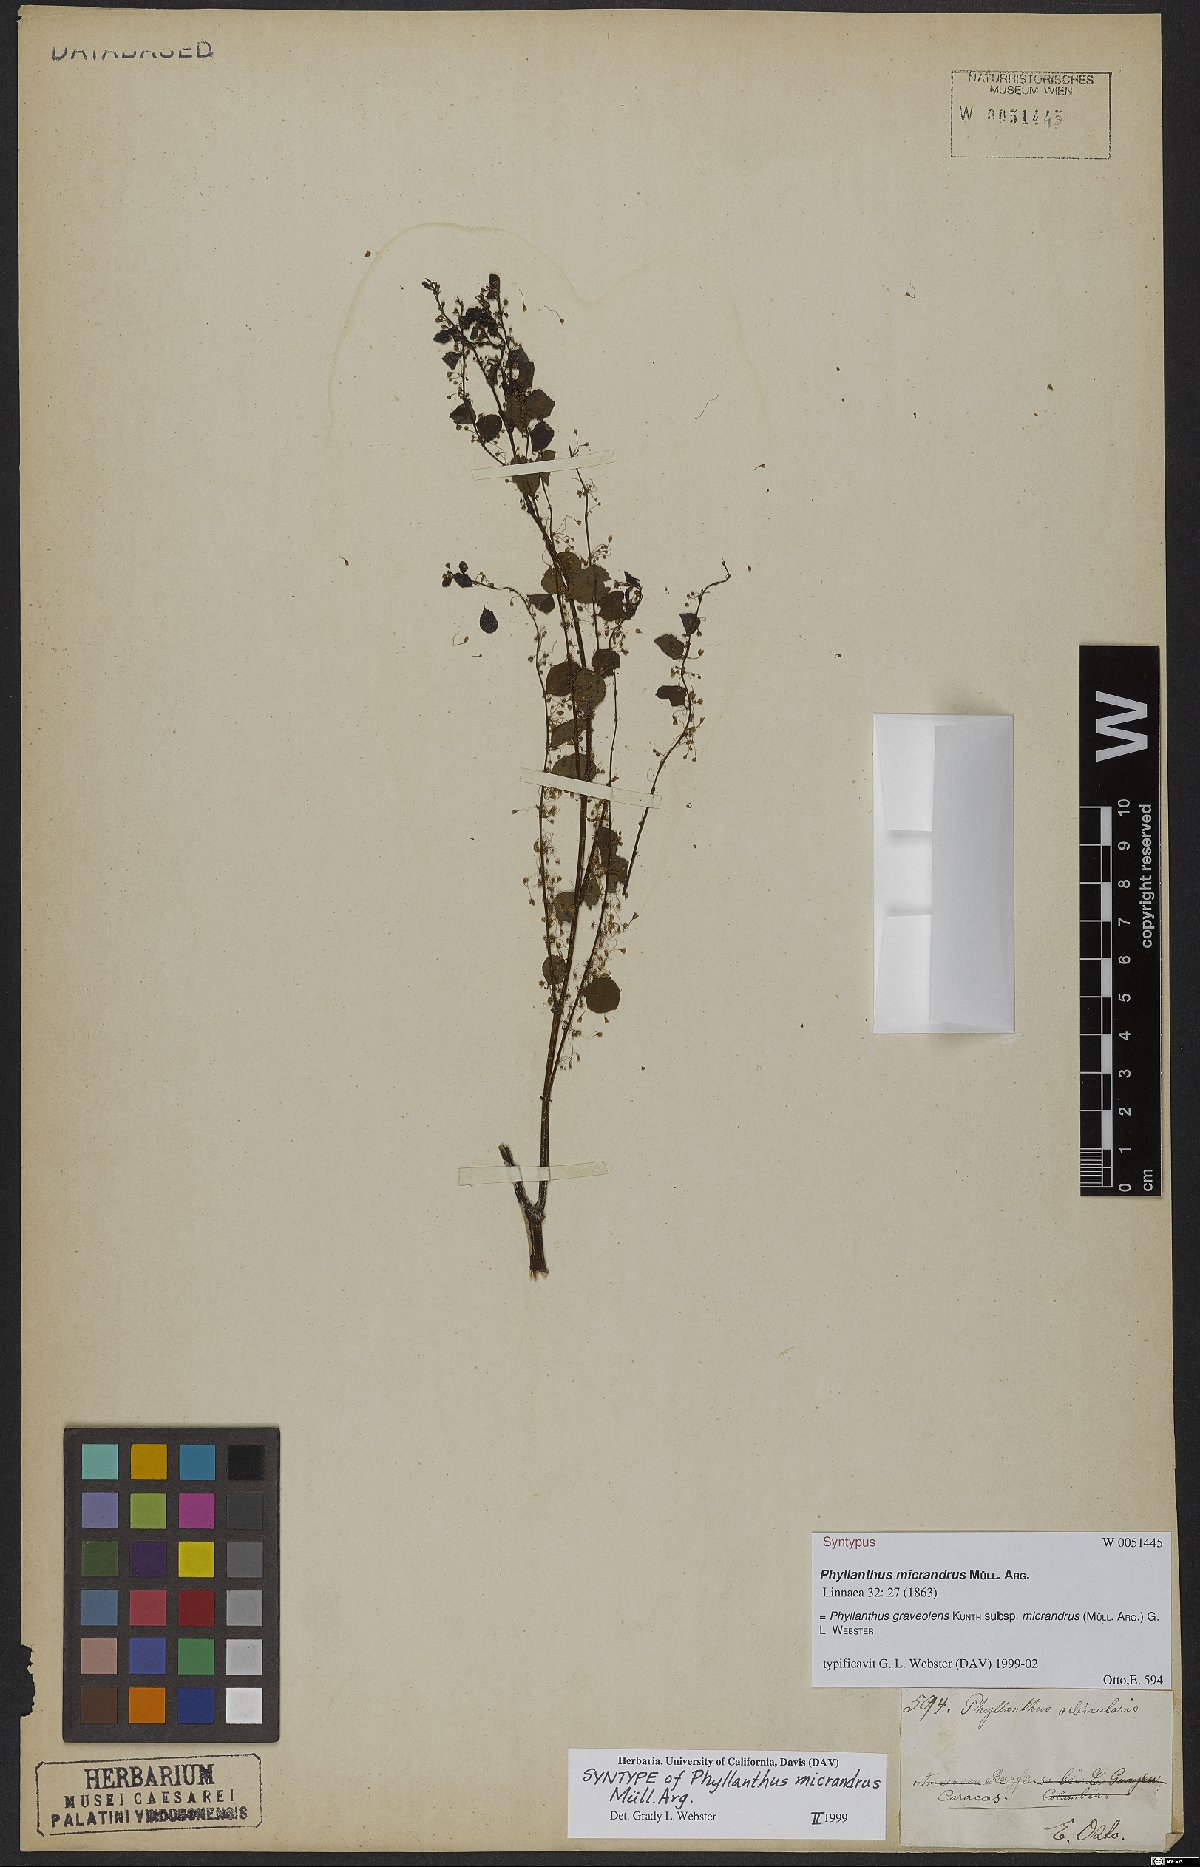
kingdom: Plantae
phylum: Tracheophyta
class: Magnoliopsida
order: Malpighiales
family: Phyllanthaceae
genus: Phyllanthus
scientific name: Phyllanthus graveolens
